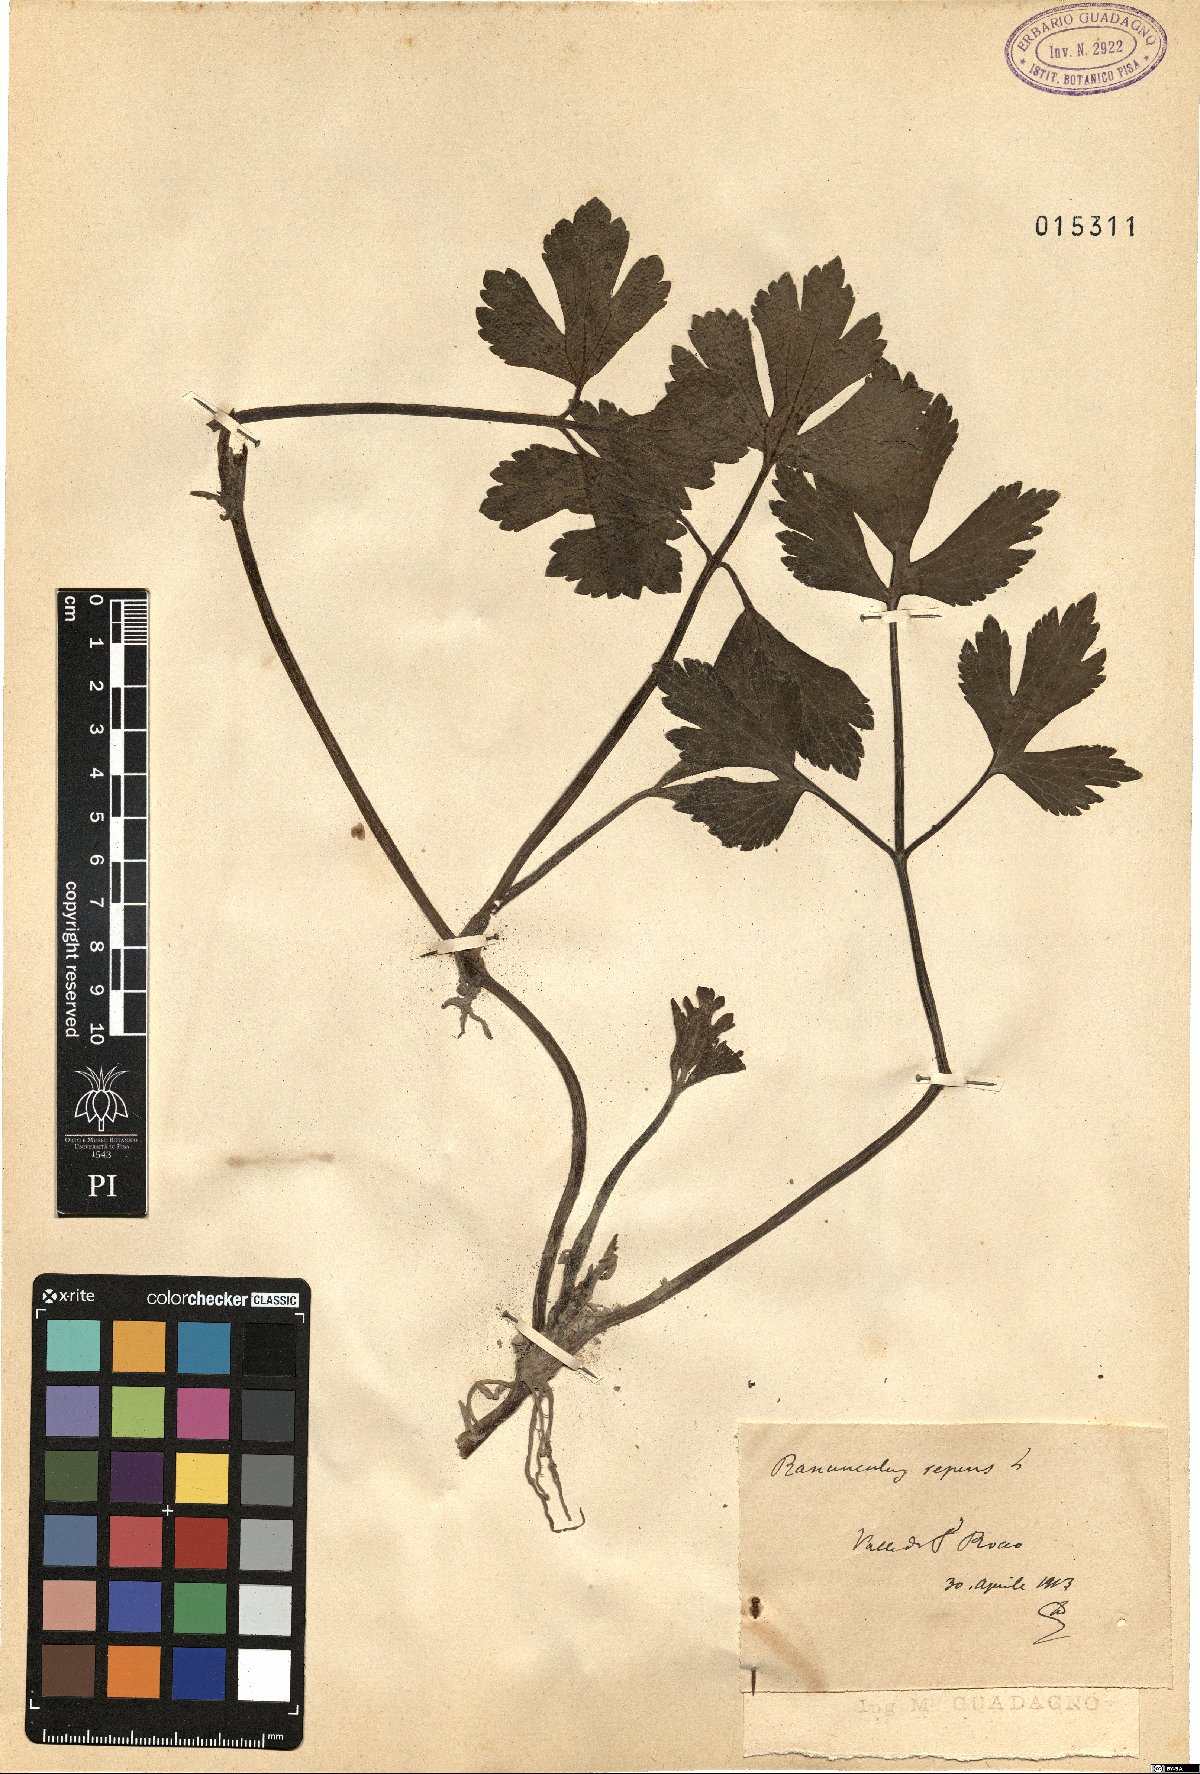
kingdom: Plantae
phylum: Tracheophyta
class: Magnoliopsida
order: Ranunculales
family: Ranunculaceae
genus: Ranunculus
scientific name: Ranunculus repens
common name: Creeping buttercup
